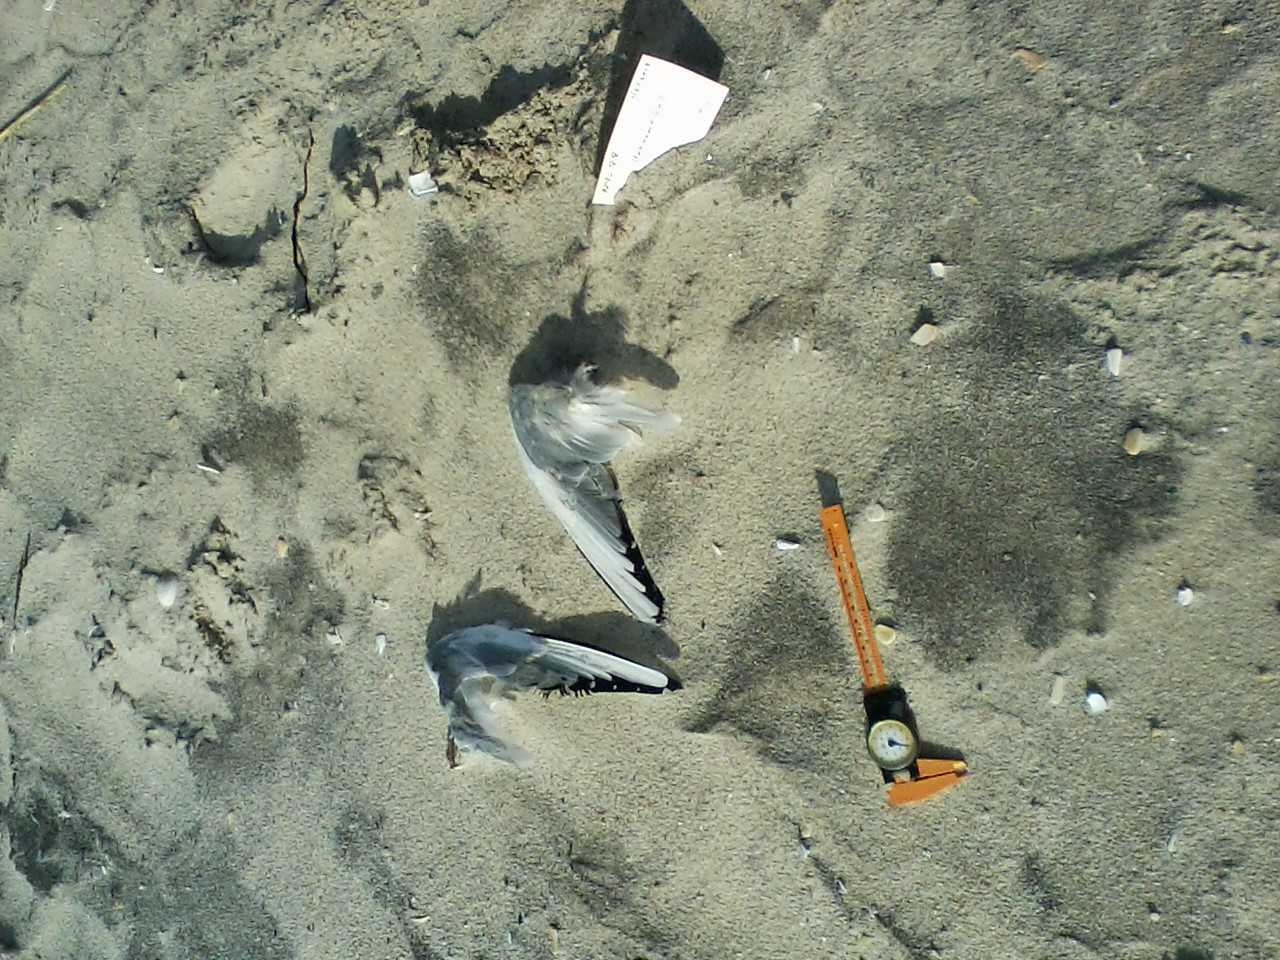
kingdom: Animalia
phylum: Chordata
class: Aves
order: Charadriiformes
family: Laridae
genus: Chroicocephalus
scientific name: Chroicocephalus philadelphia
